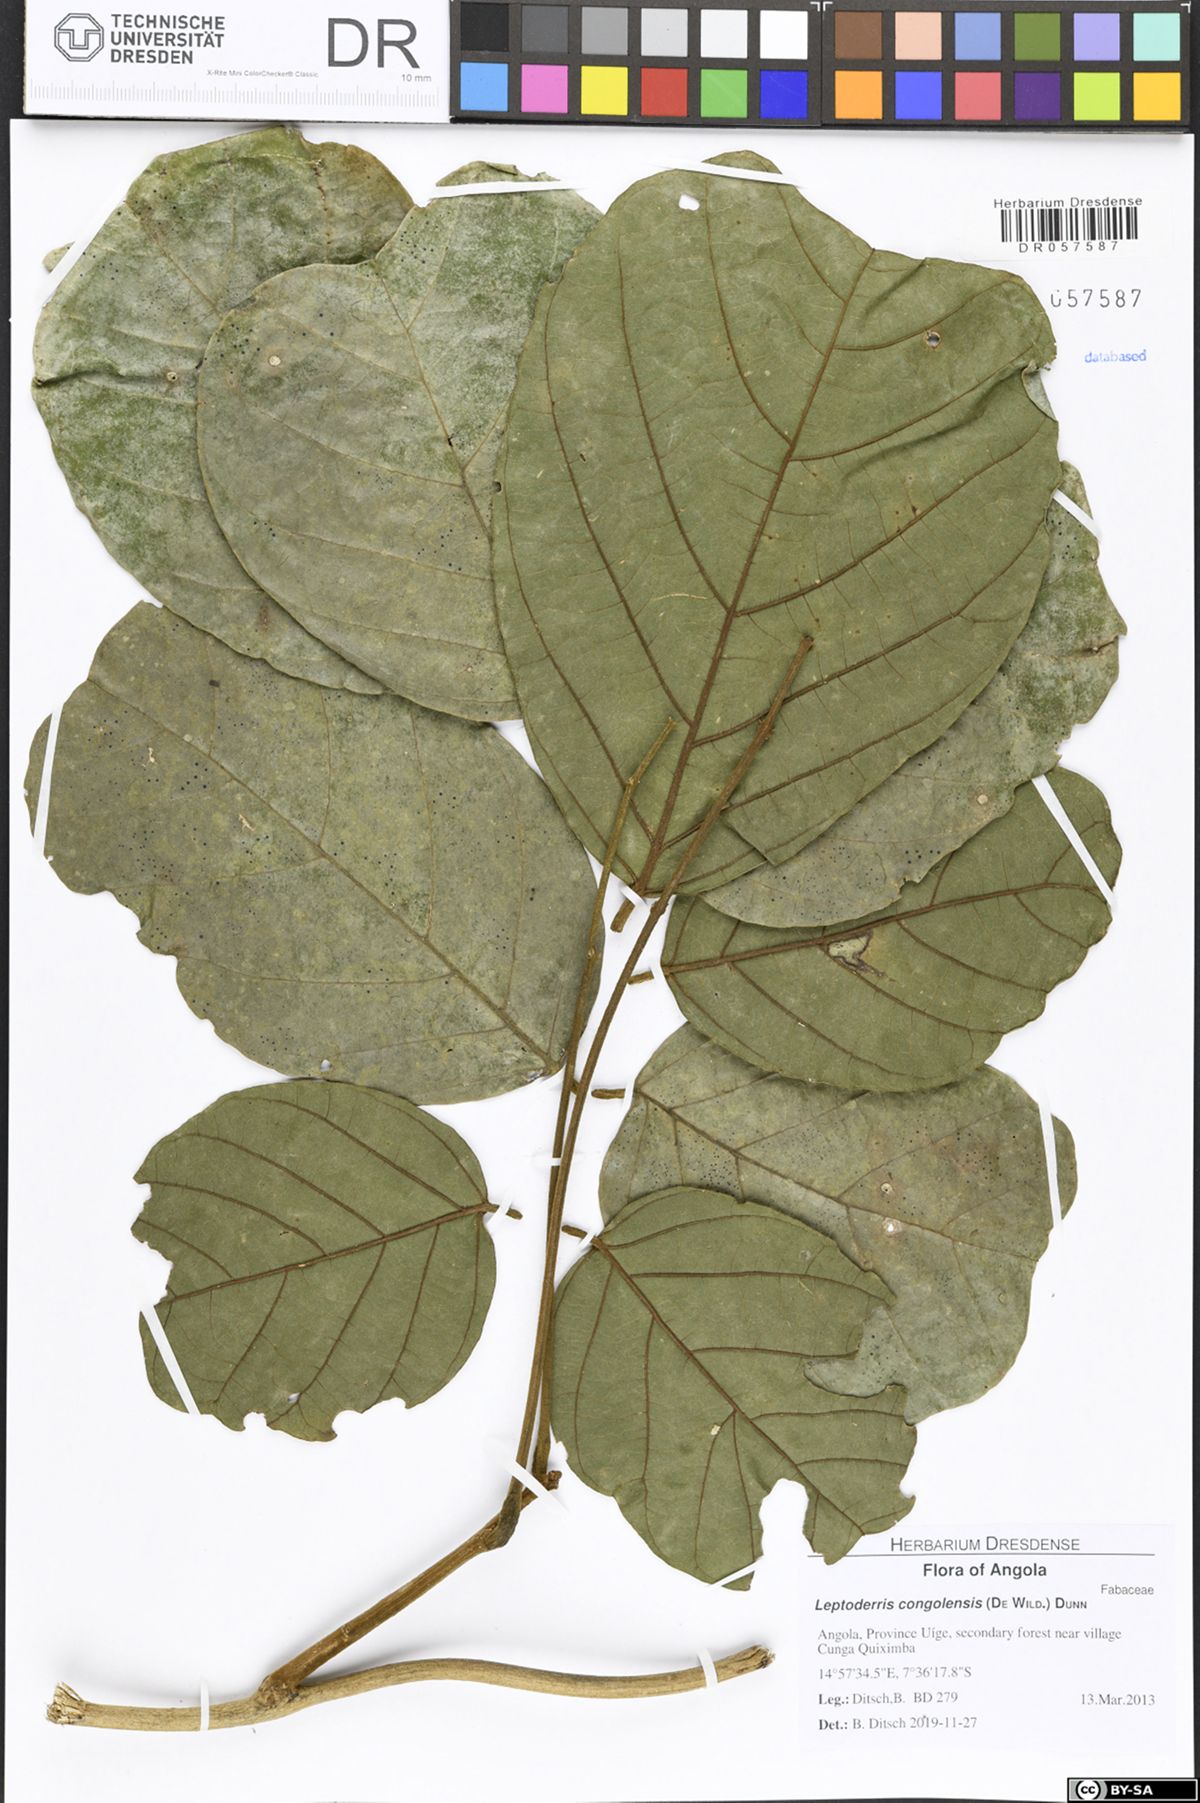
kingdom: Plantae
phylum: Tracheophyta
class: Magnoliopsida
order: Fabales
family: Fabaceae
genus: Leptoderris
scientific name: Leptoderris congolensis
